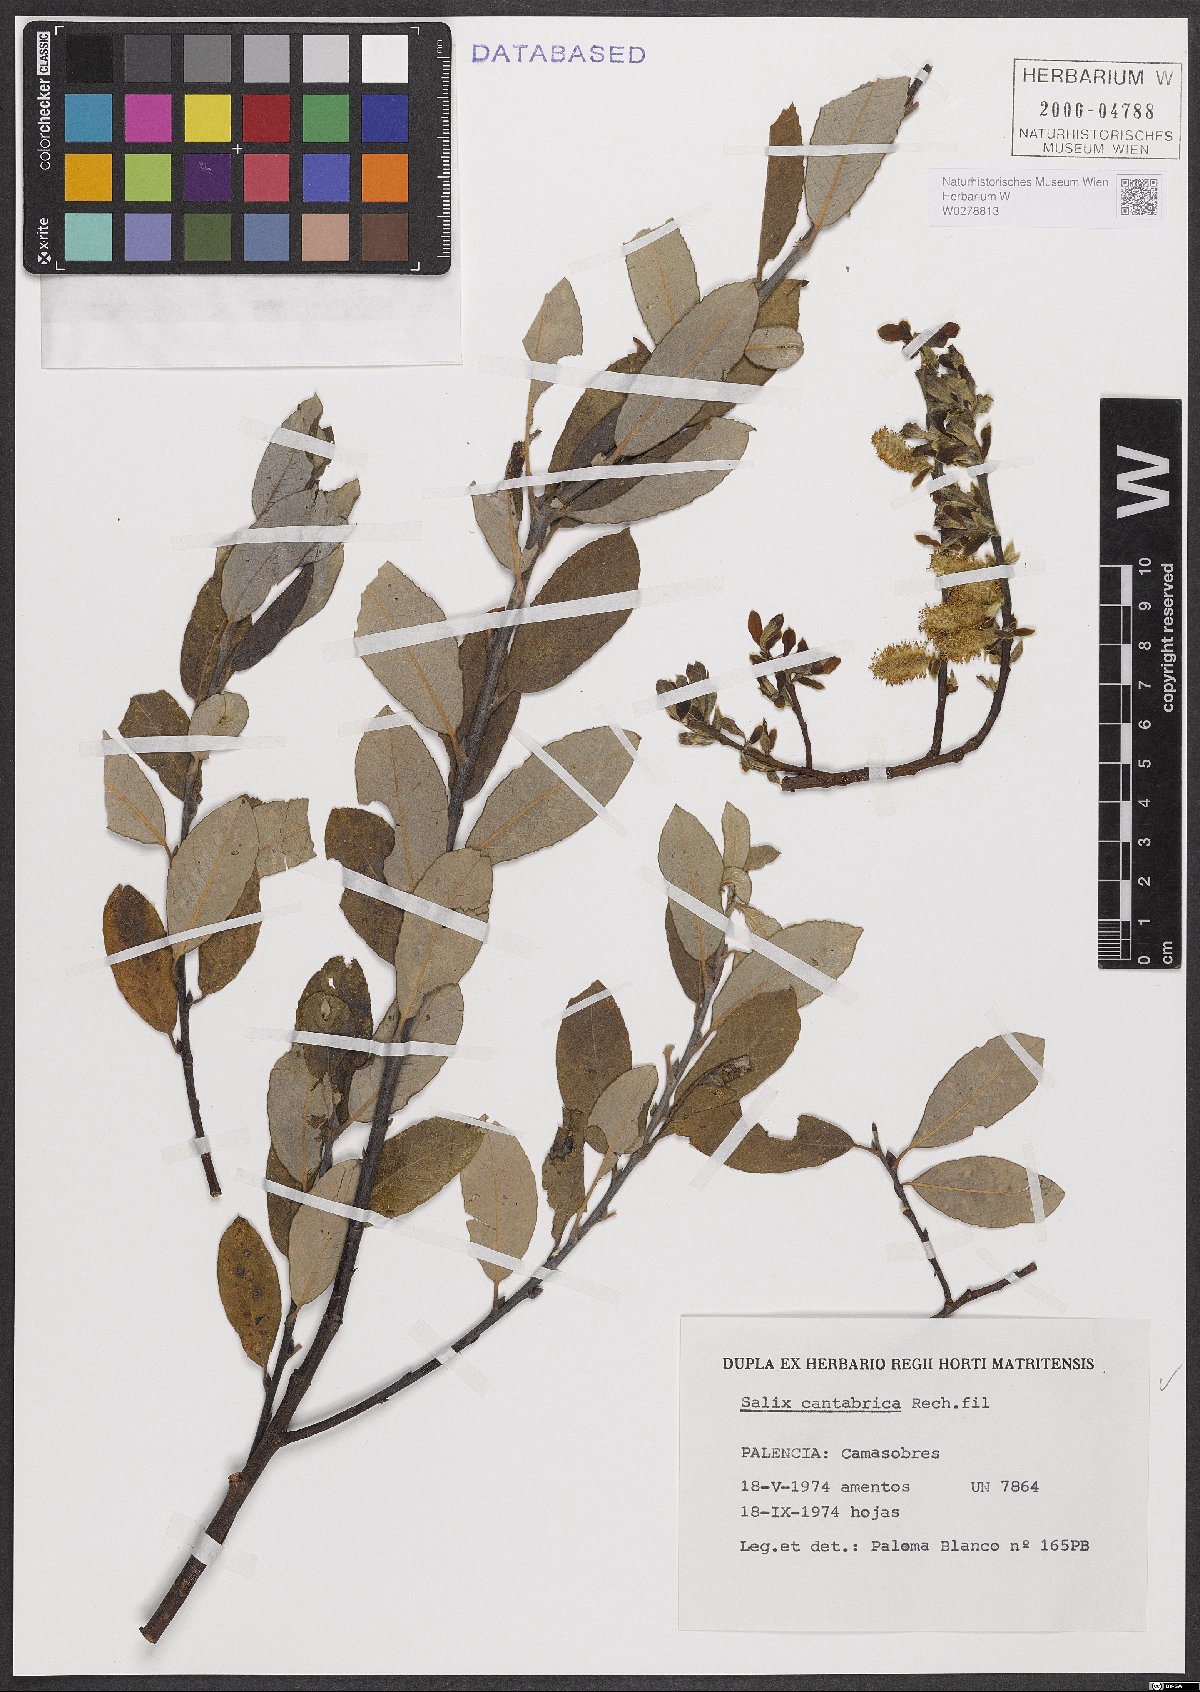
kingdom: Plantae
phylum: Tracheophyta
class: Magnoliopsida
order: Malpighiales
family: Salicaceae
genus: Salix
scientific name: Salix cantabrica
